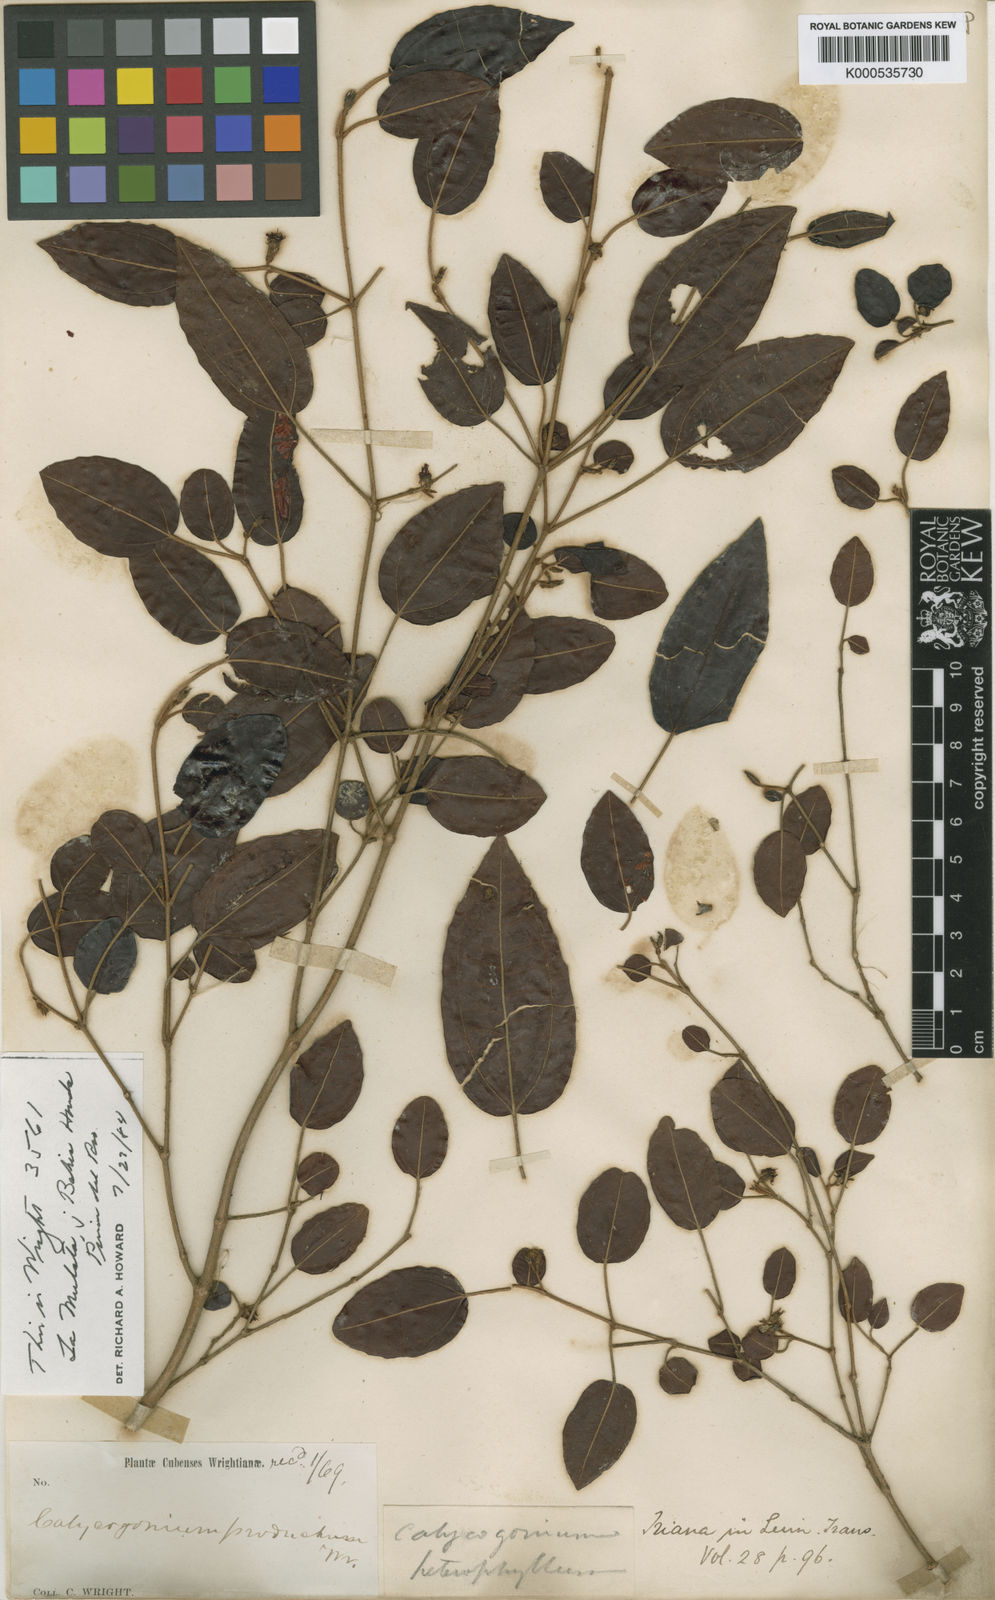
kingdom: Plantae
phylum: Tracheophyta
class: Magnoliopsida
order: Myrtales
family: Melastomataceae
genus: Miconia
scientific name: Miconia heterophylla
